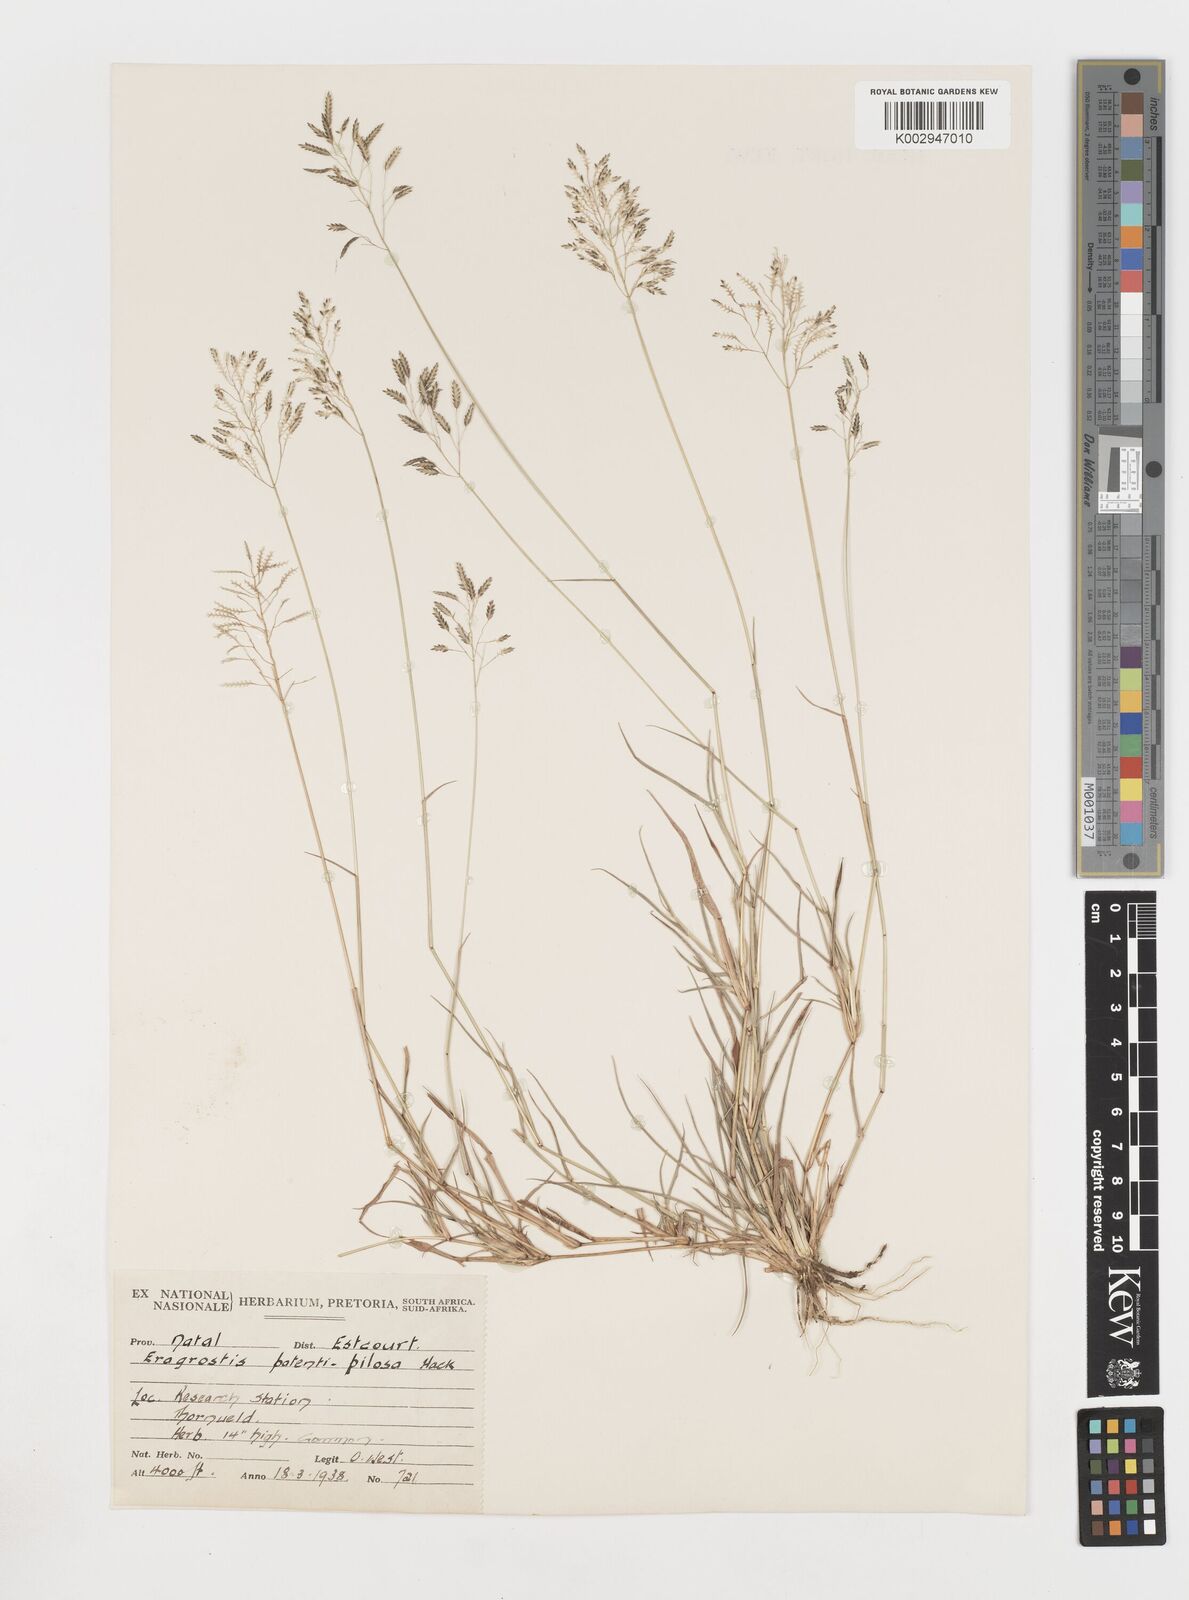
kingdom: Plantae
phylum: Tracheophyta
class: Liliopsida
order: Poales
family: Poaceae
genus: Eragrostis
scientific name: Eragrostis patentipilosa
